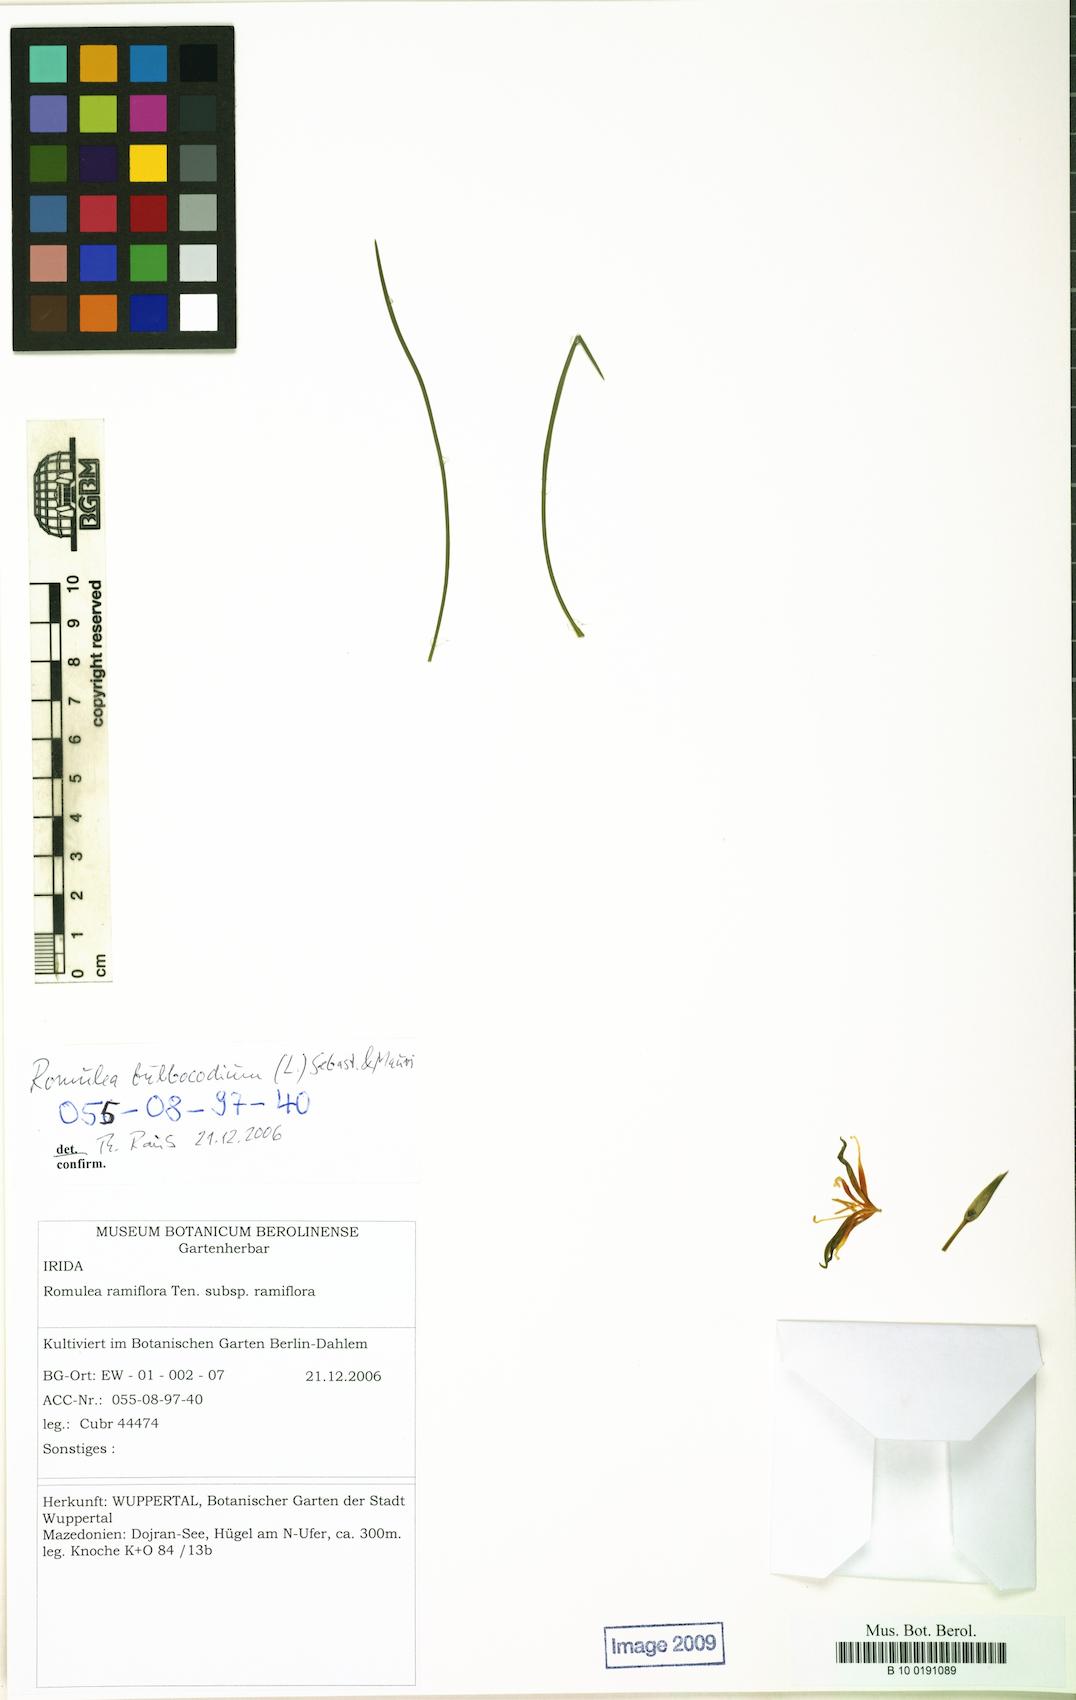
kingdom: Plantae
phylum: Tracheophyta
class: Liliopsida
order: Asparagales
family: Iridaceae
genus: Romulea
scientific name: Romulea bulbocodium
